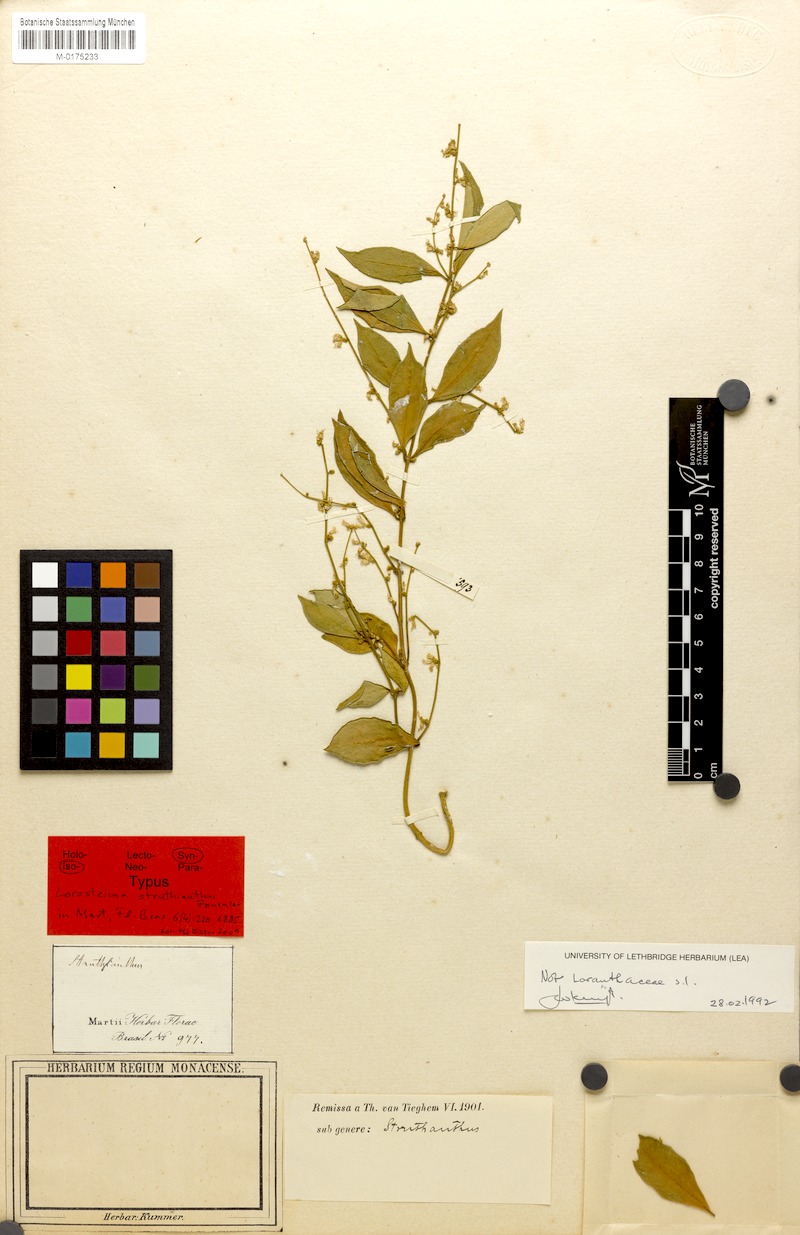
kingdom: Plantae
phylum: Tracheophyta
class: Magnoliopsida
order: Gentianales
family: Apocynaceae
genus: Tassadia
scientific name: Tassadia decalepis
